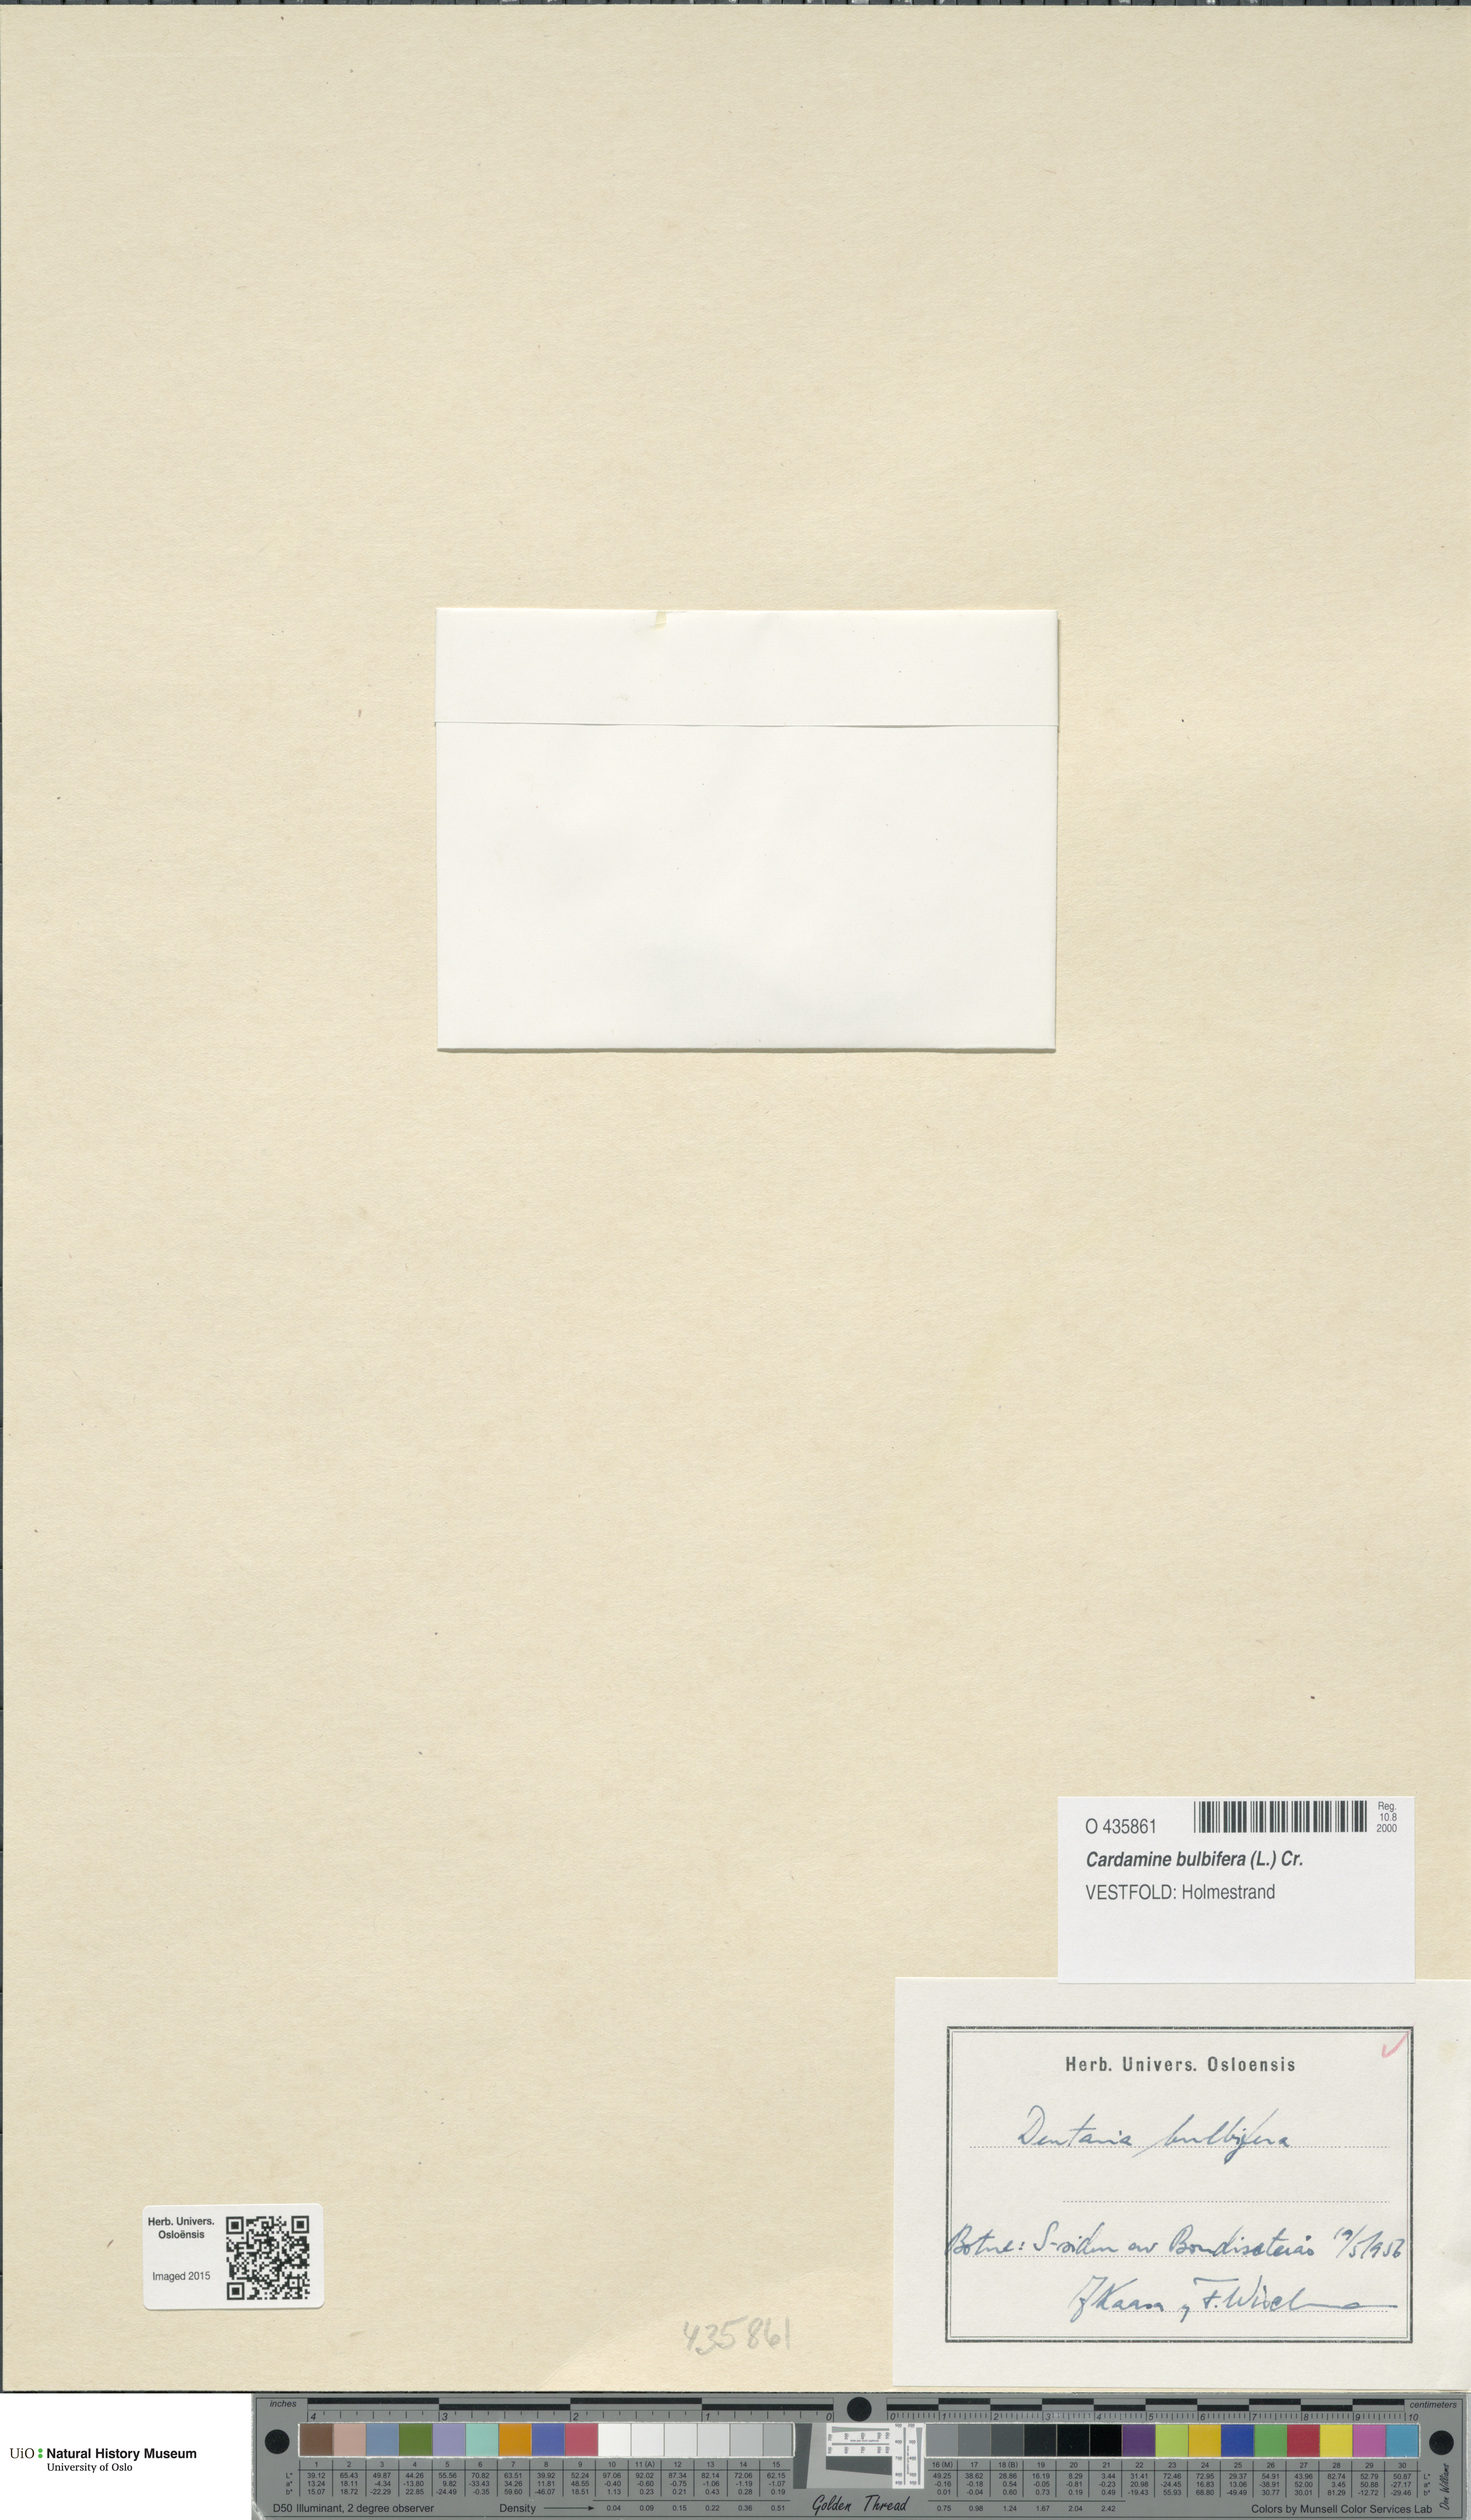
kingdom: Plantae
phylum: Tracheophyta
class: Magnoliopsida
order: Brassicales
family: Brassicaceae
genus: Cardamine
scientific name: Cardamine bulbifera
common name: Coralroot bittercress
